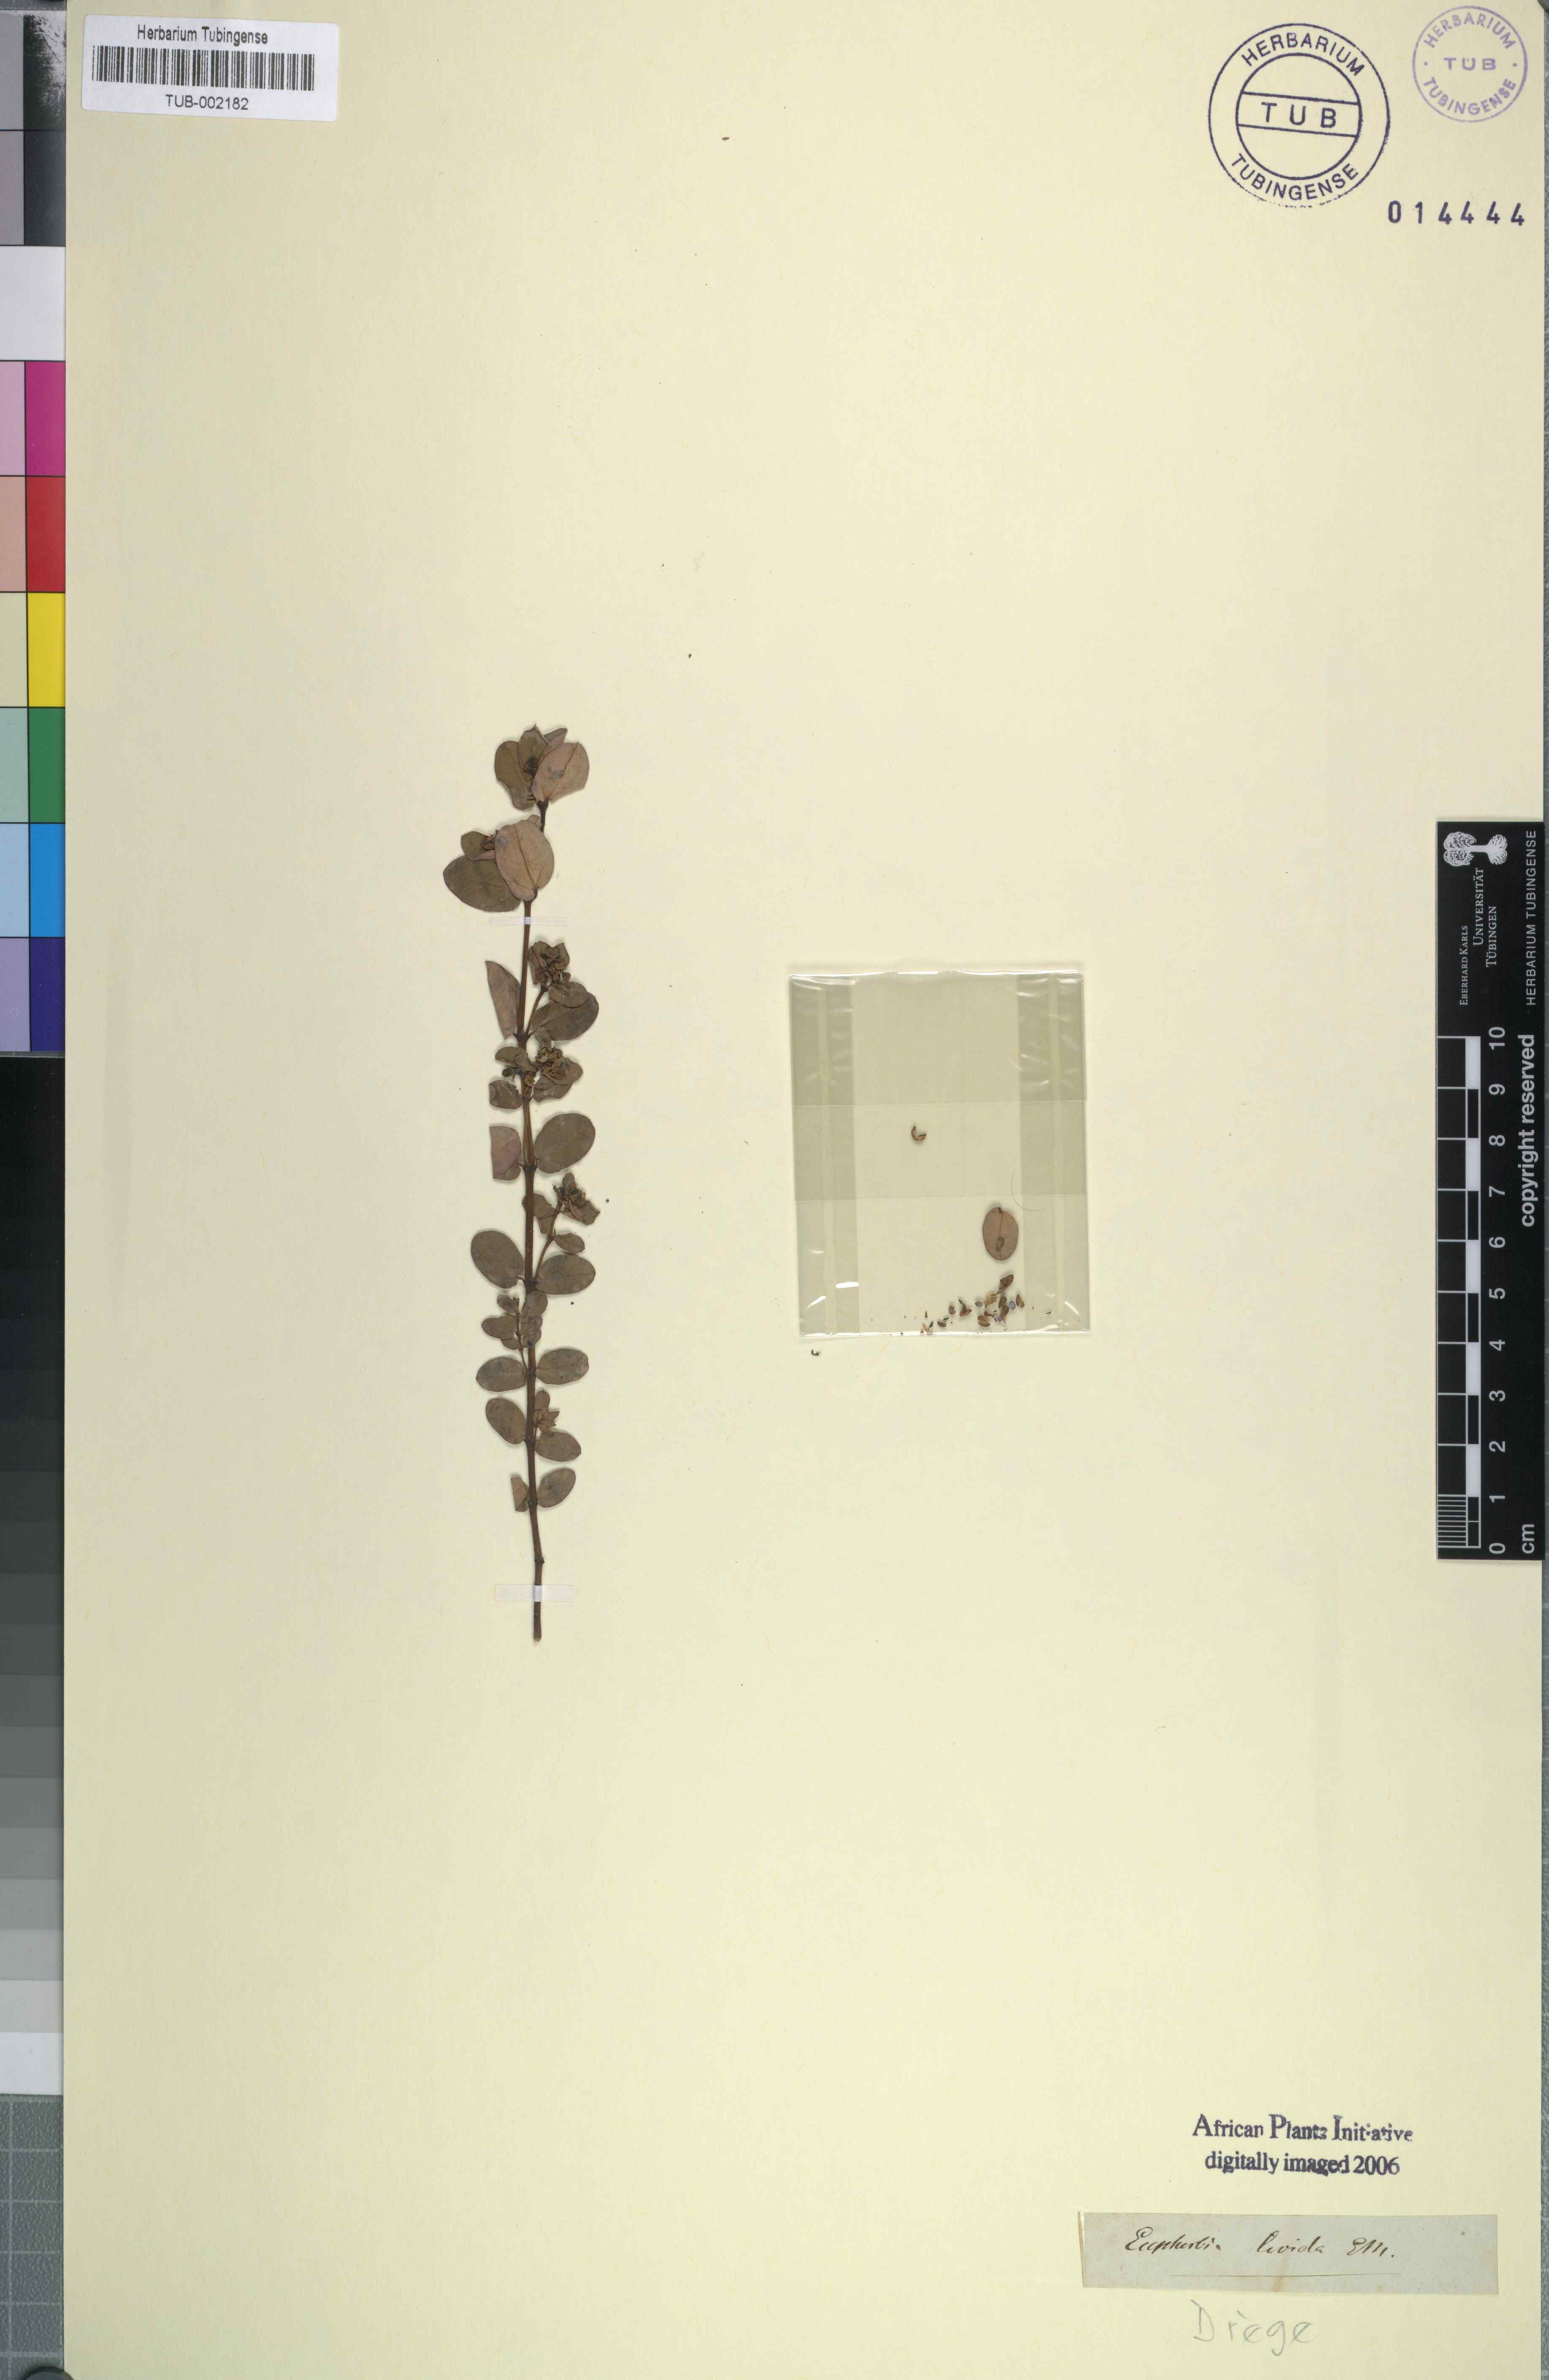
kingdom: Plantae
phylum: Tracheophyta
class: Magnoliopsida
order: Malpighiales
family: Euphorbiaceae
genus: Euphorbia
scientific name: Euphorbia livida
